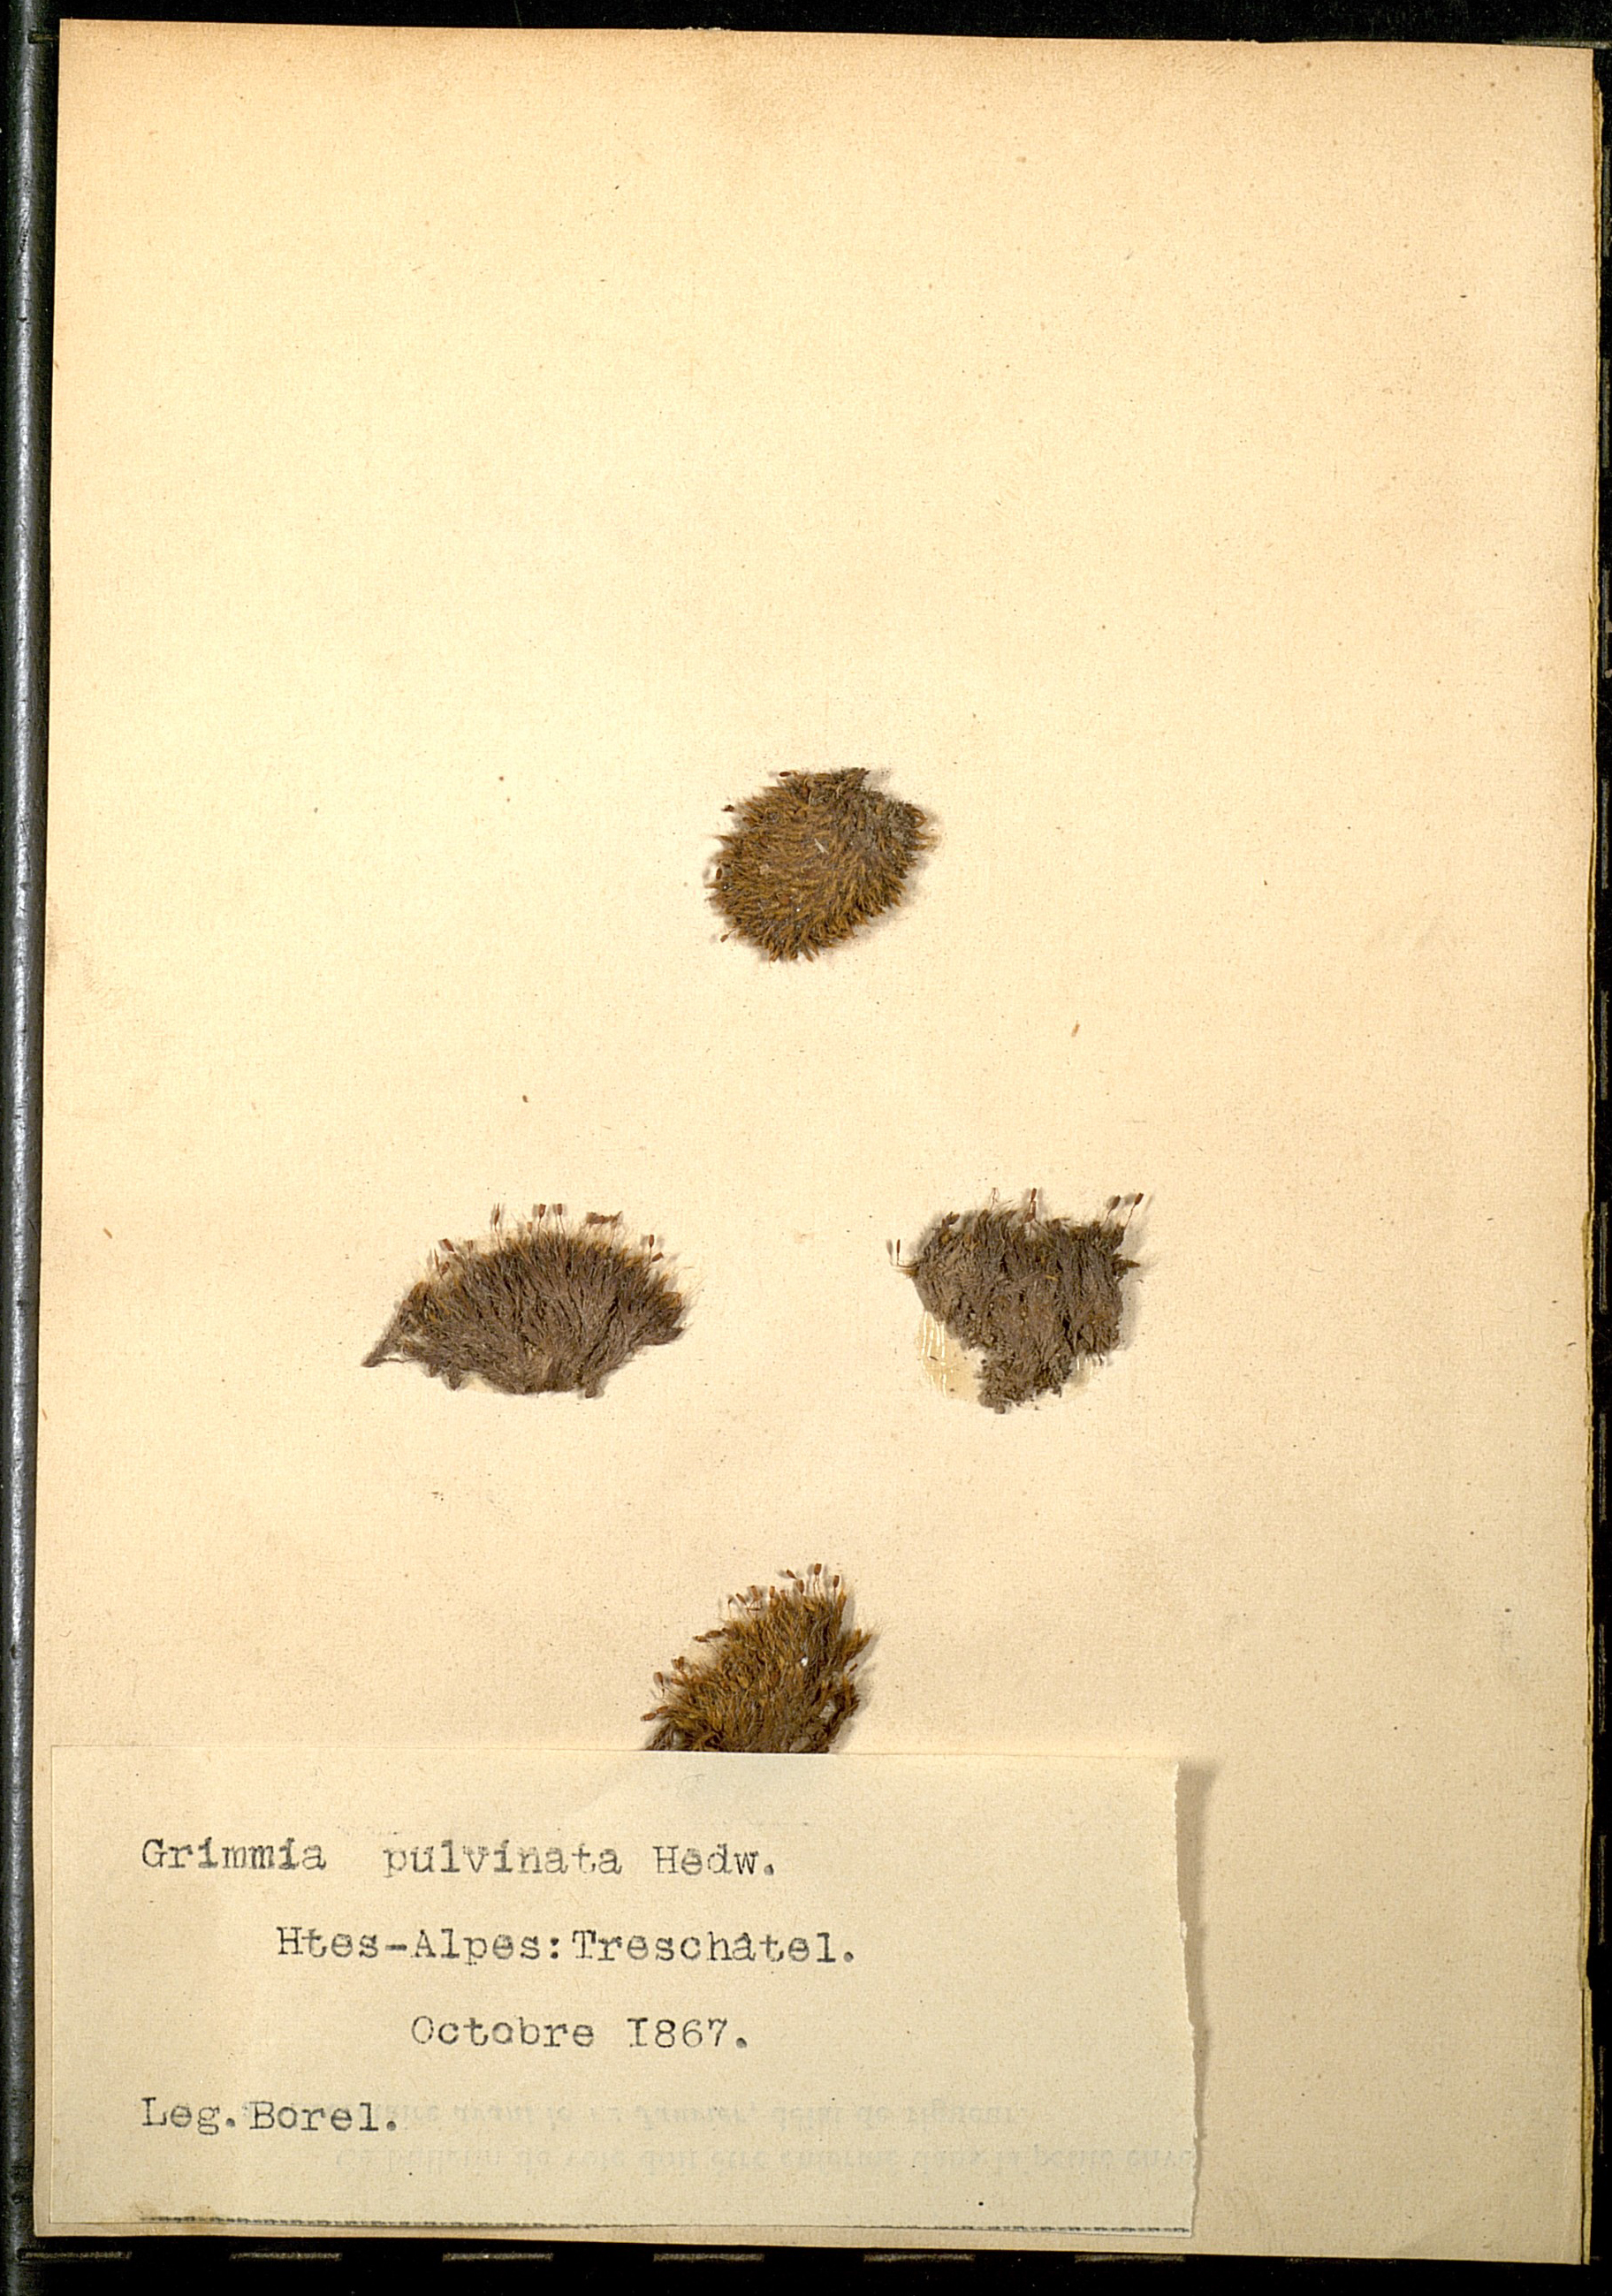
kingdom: Plantae
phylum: Bryophyta
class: Bryopsida
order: Grimmiales
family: Grimmiaceae
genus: Grimmia
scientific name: Grimmia pulvinata
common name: Grey-cushioned grimmia
